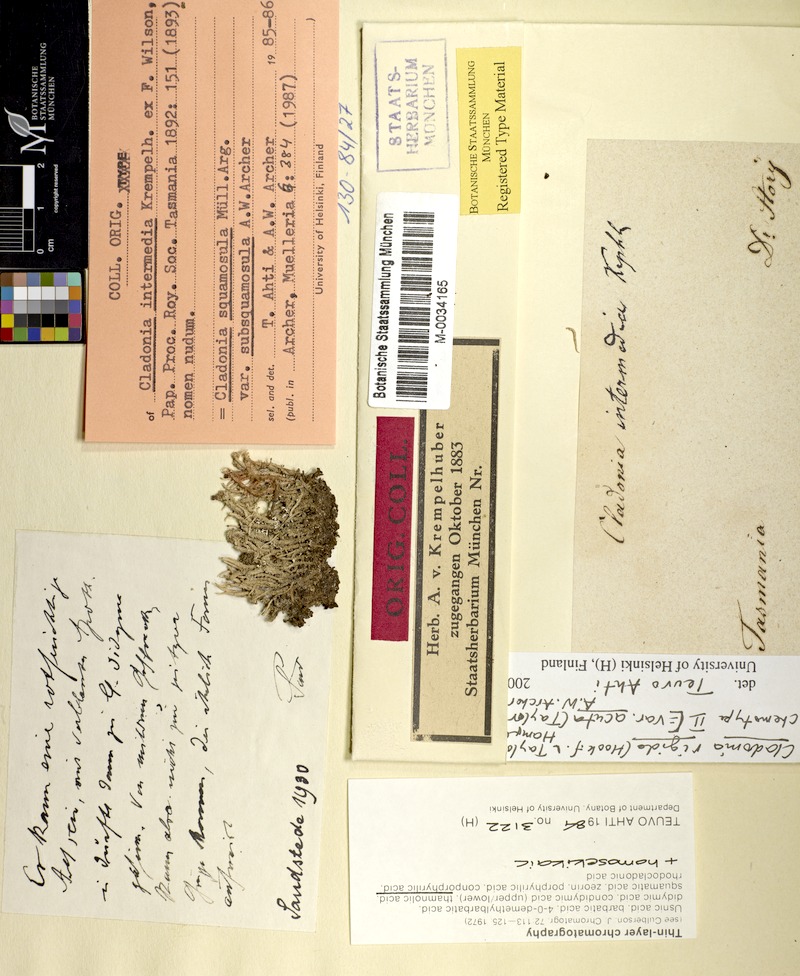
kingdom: Fungi
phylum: Ascomycota
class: Lecanoromycetes
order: Lecanorales
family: Cladoniaceae
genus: Cladonia
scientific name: Cladonia rigida
